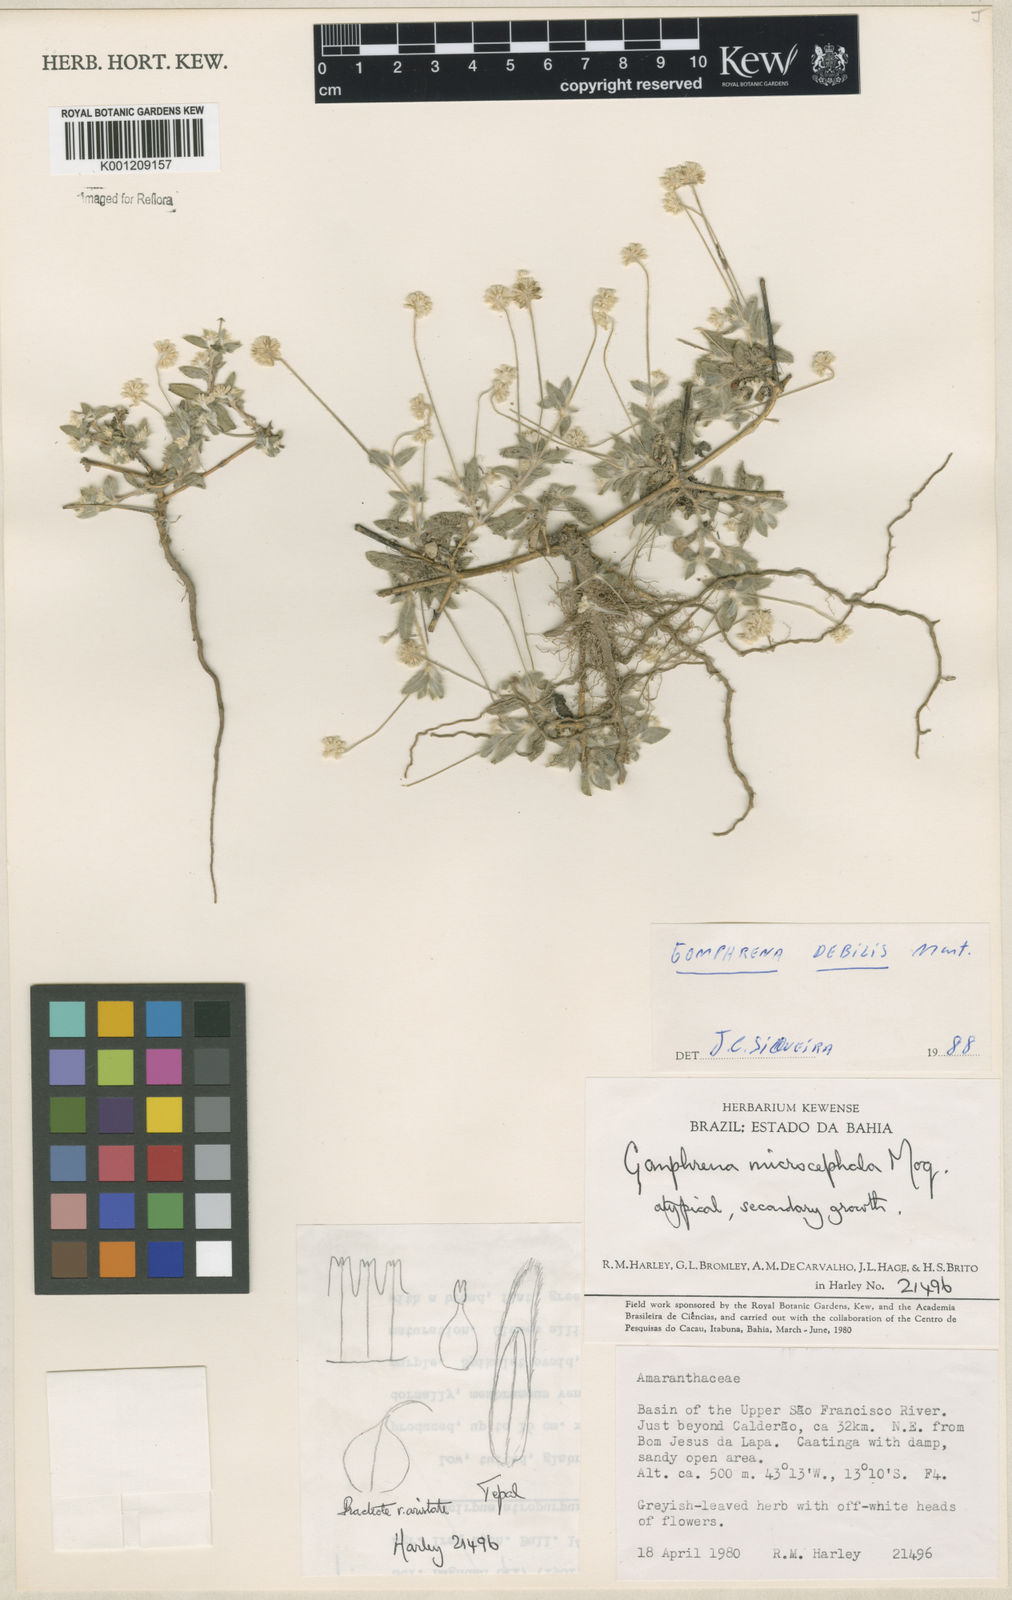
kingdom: Plantae
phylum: Tracheophyta
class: Magnoliopsida
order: Caryophyllales
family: Amaranthaceae
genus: Gomphrena
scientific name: Gomphrena microcephala
